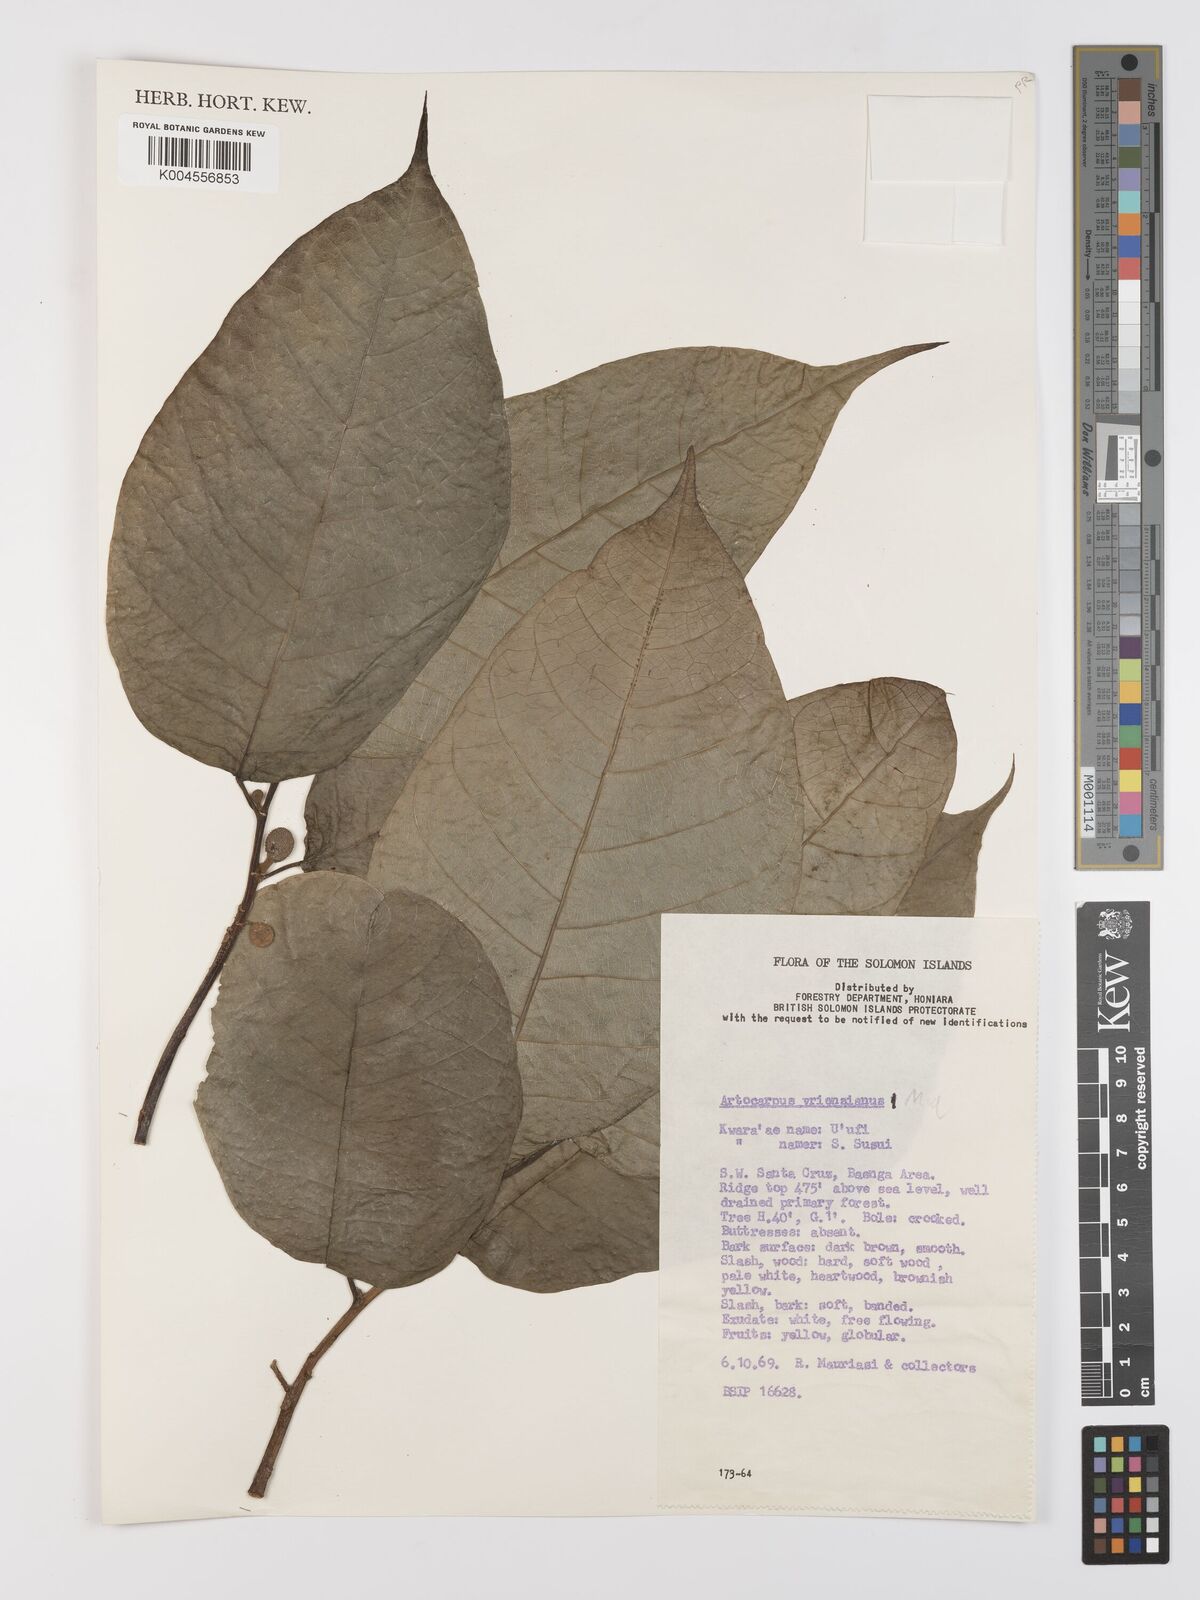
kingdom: Plantae
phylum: Tracheophyta
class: Magnoliopsida
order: Rosales
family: Moraceae
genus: Artocarpus
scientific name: Artocarpus vrieseanus
